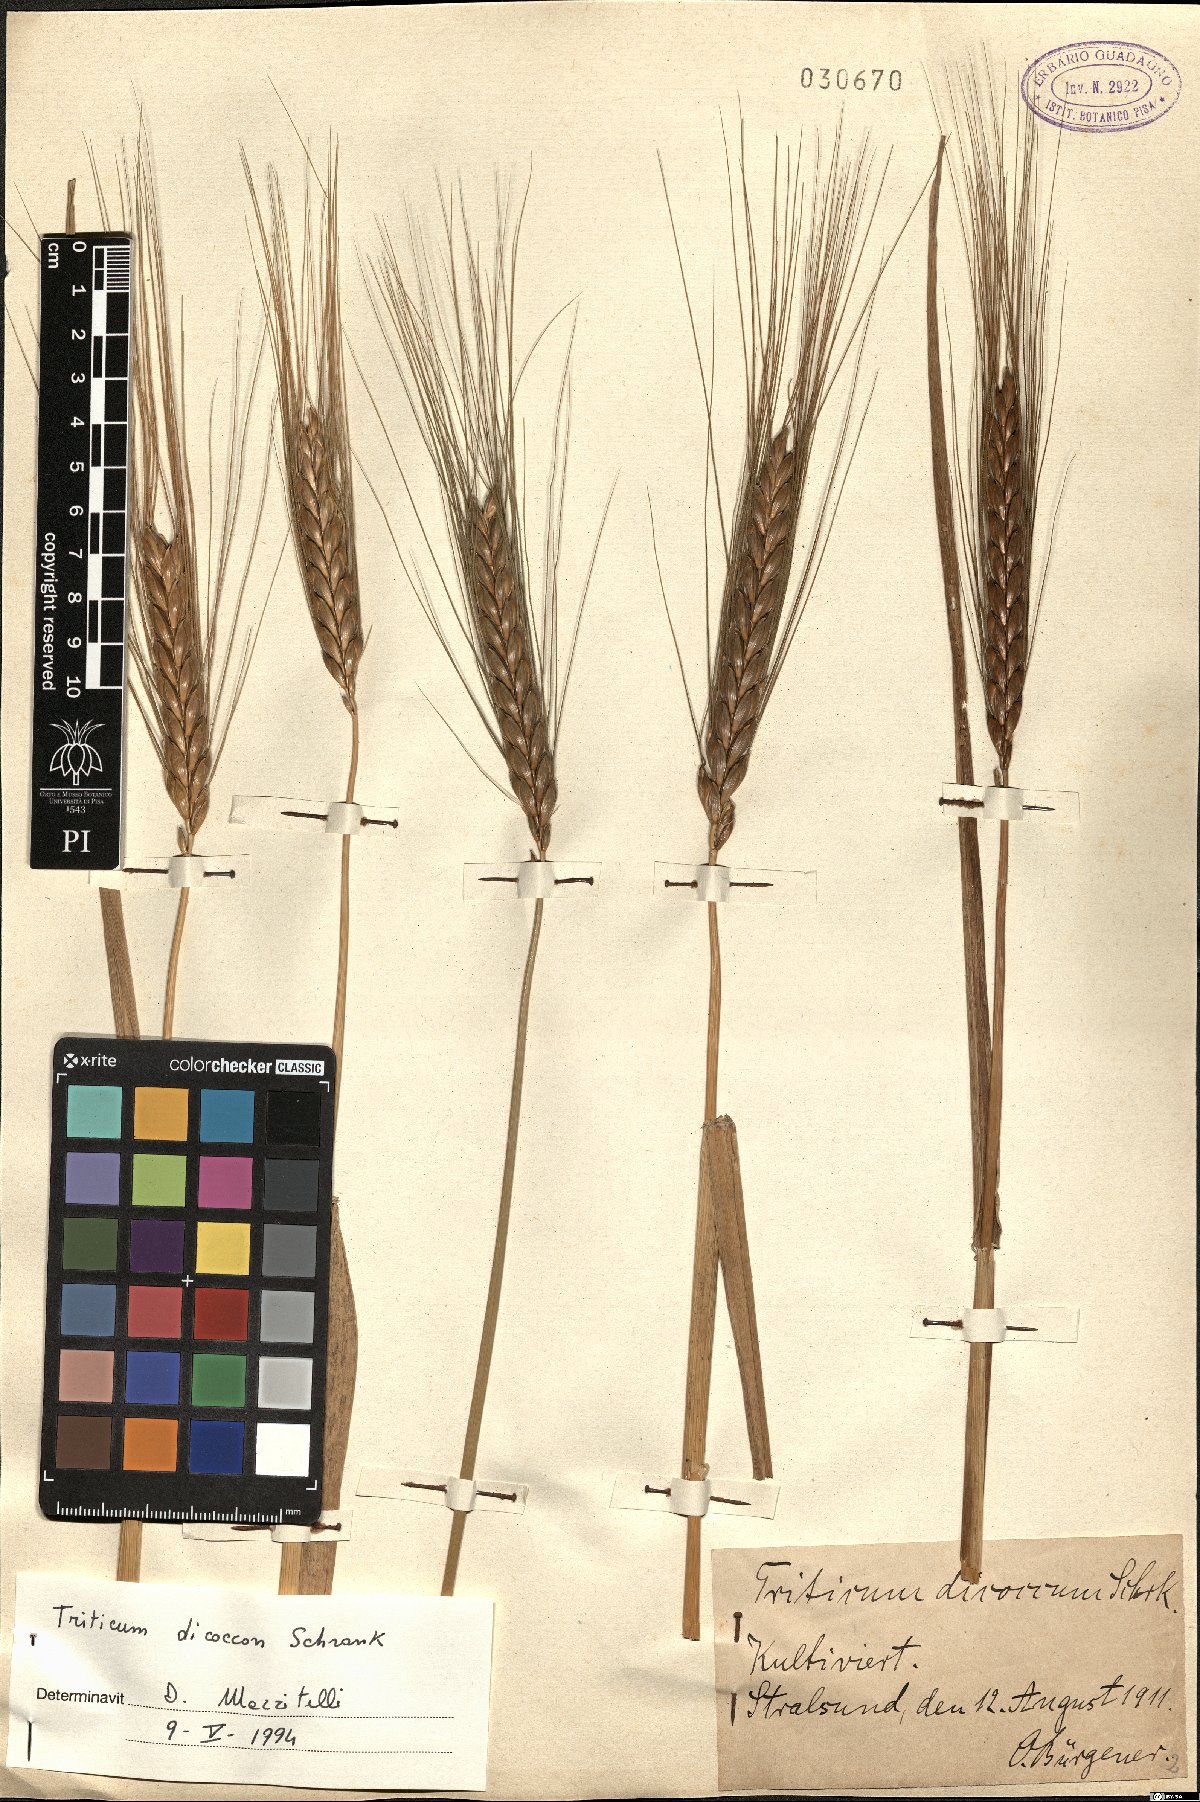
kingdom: Plantae
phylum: Tracheophyta
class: Liliopsida
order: Poales
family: Poaceae
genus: Triticum
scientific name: Triticum turgidum
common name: Rivet wheat
